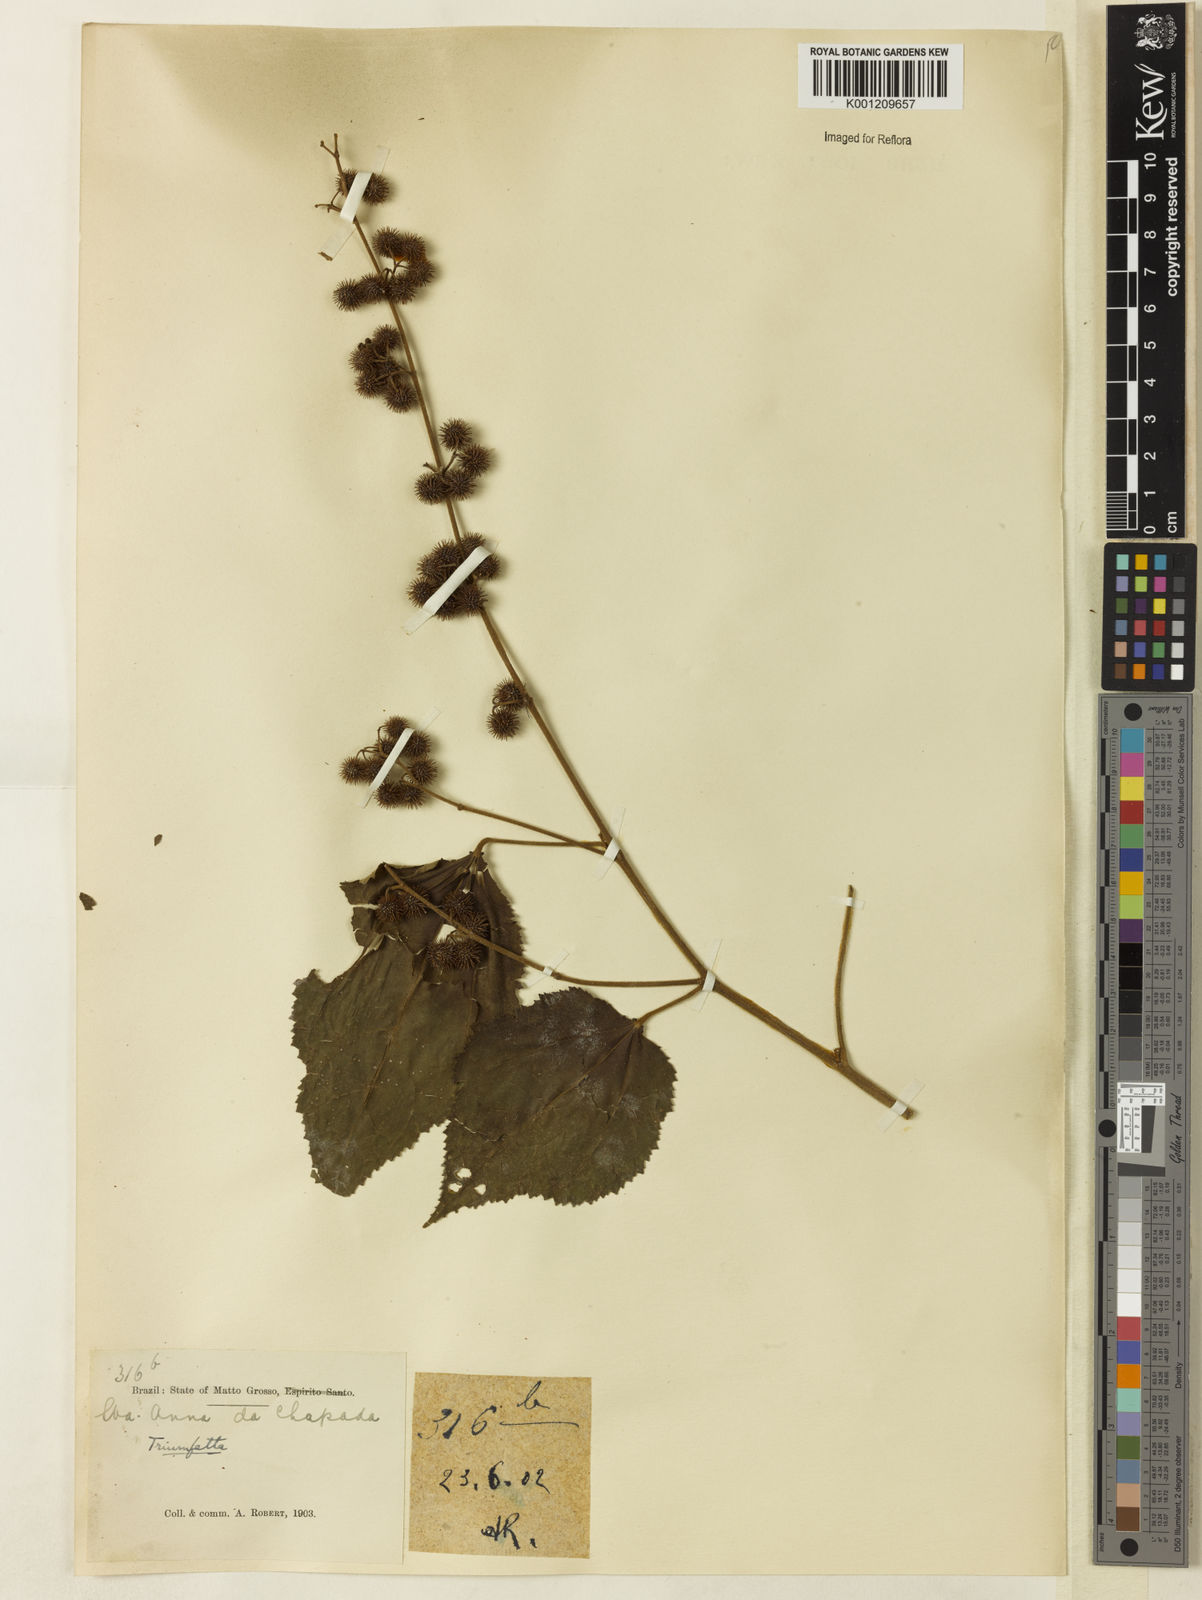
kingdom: Plantae
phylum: Tracheophyta
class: Magnoliopsida
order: Malvales
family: Malvaceae
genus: Triumfetta
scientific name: Triumfetta
